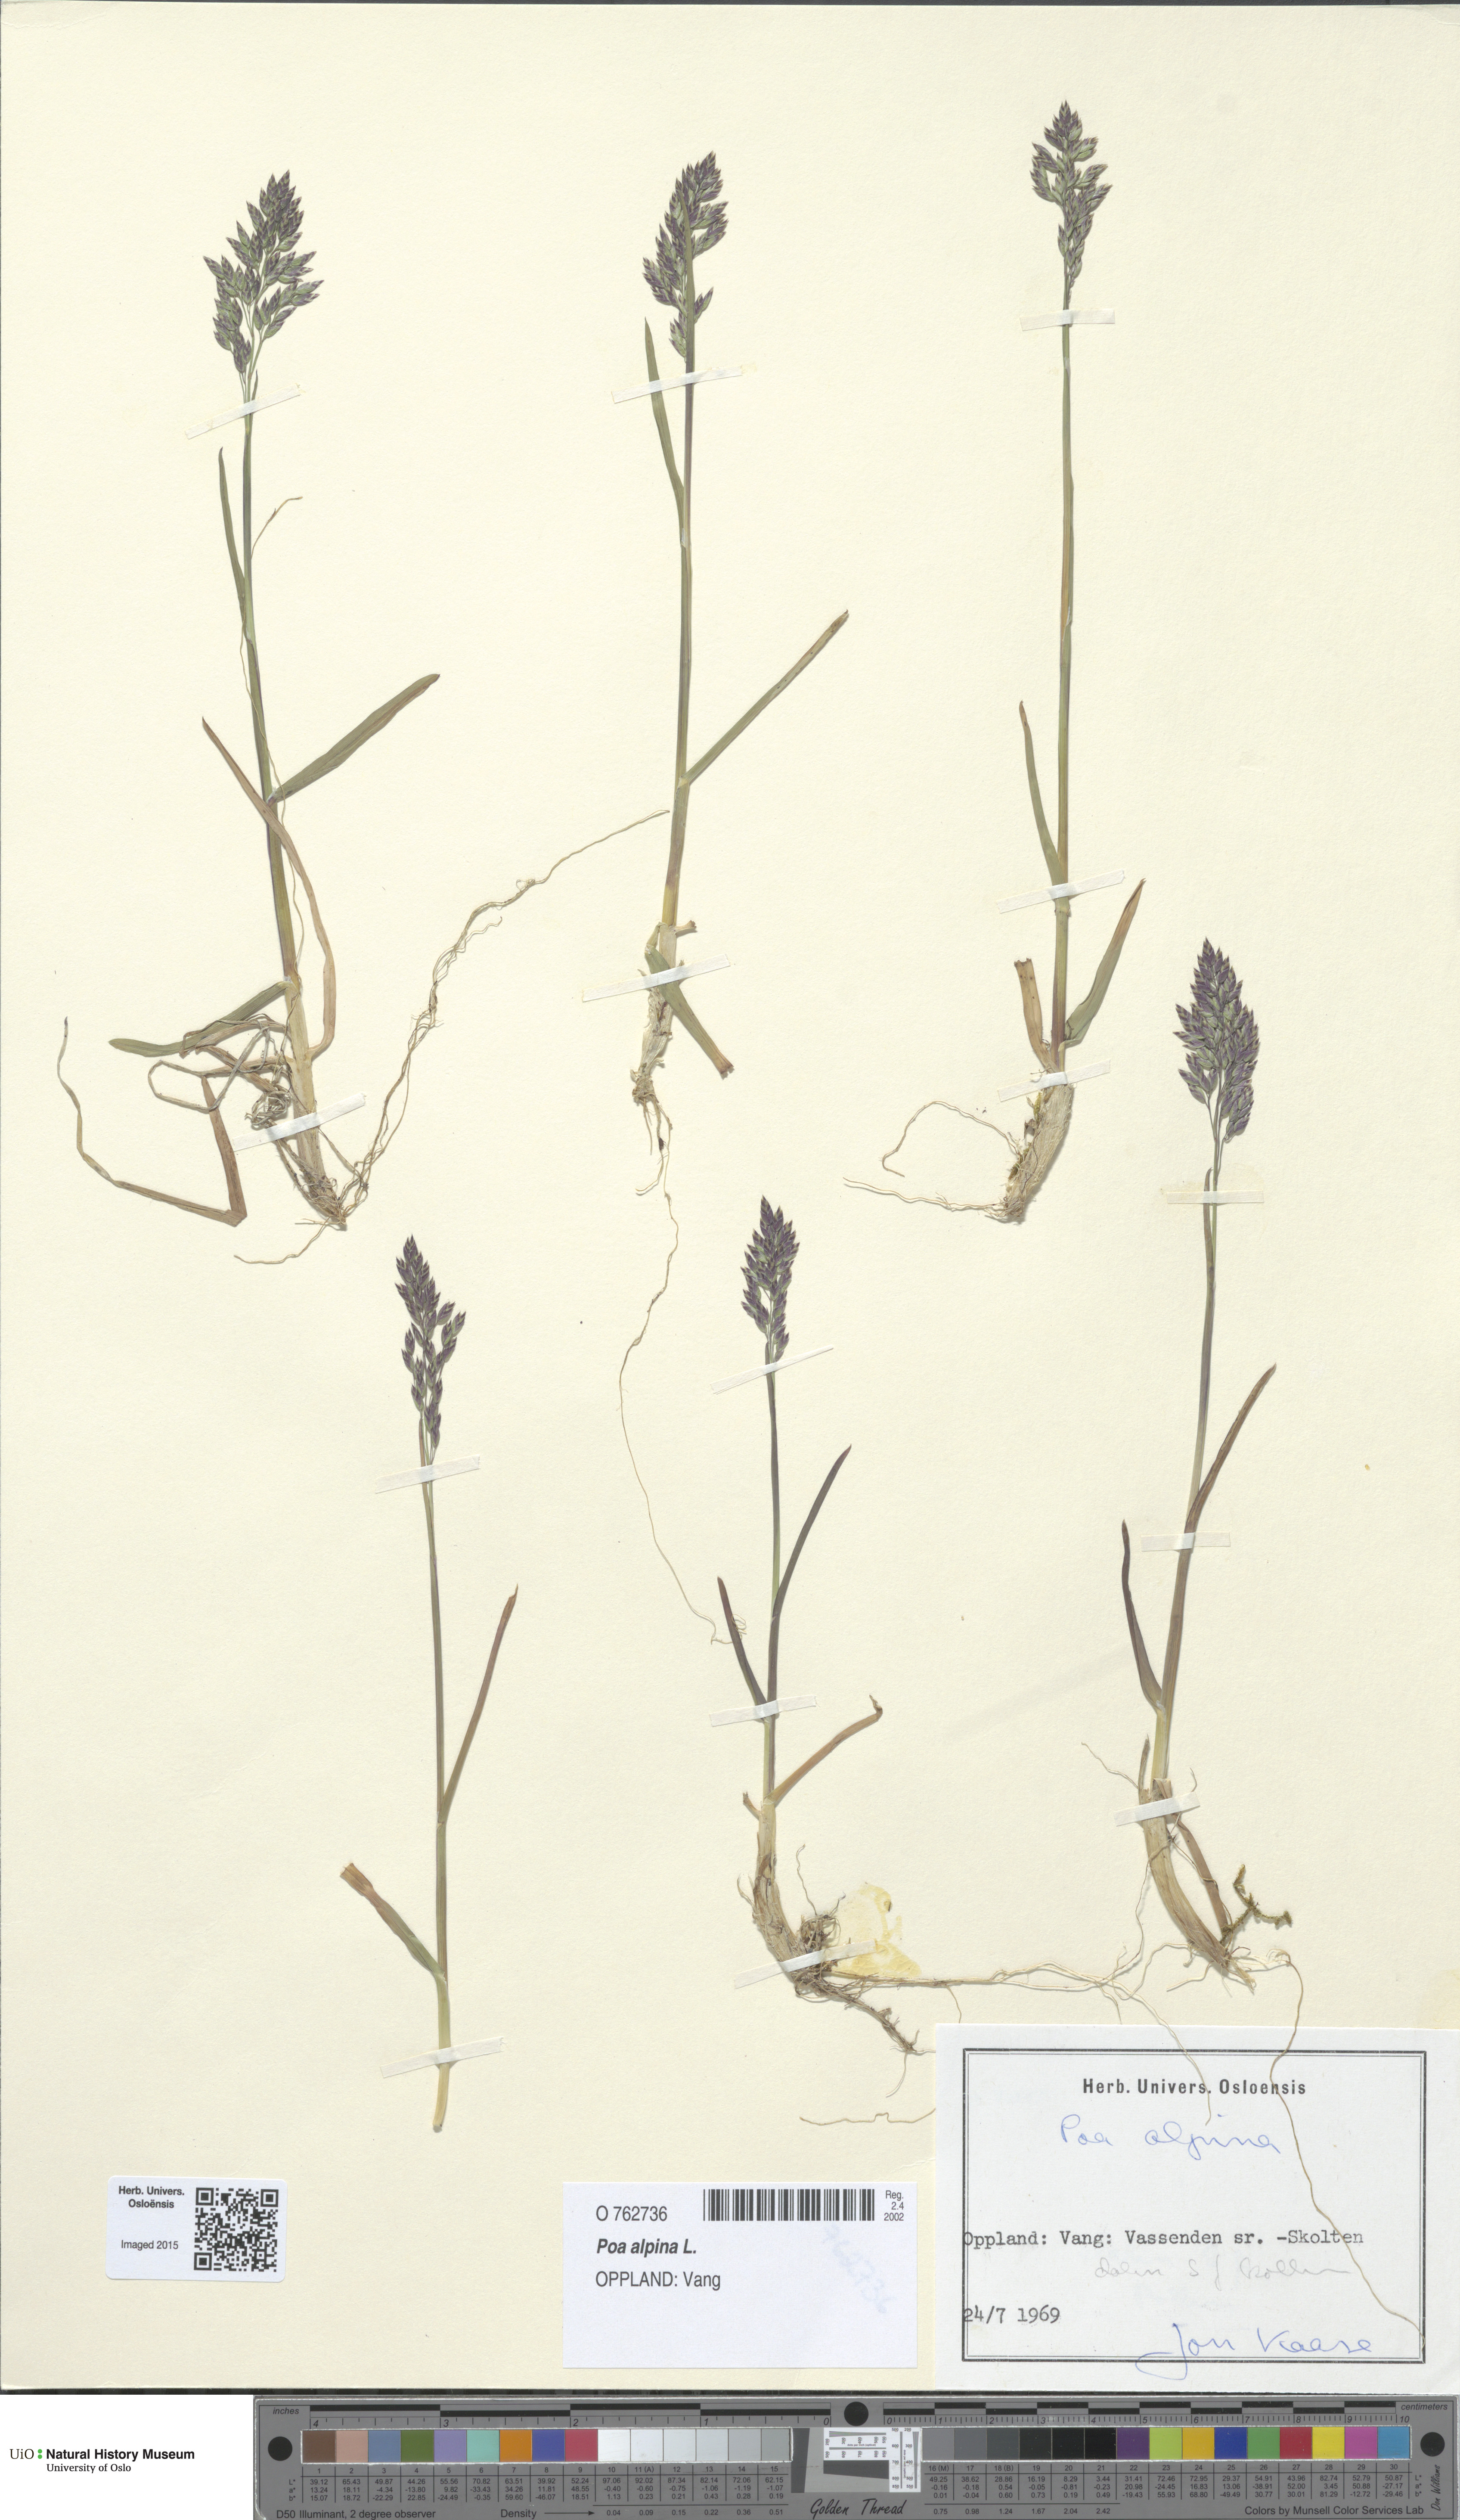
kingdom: Plantae
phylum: Tracheophyta
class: Liliopsida
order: Poales
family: Poaceae
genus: Poa
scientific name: Poa alpina
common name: Alpine bluegrass
